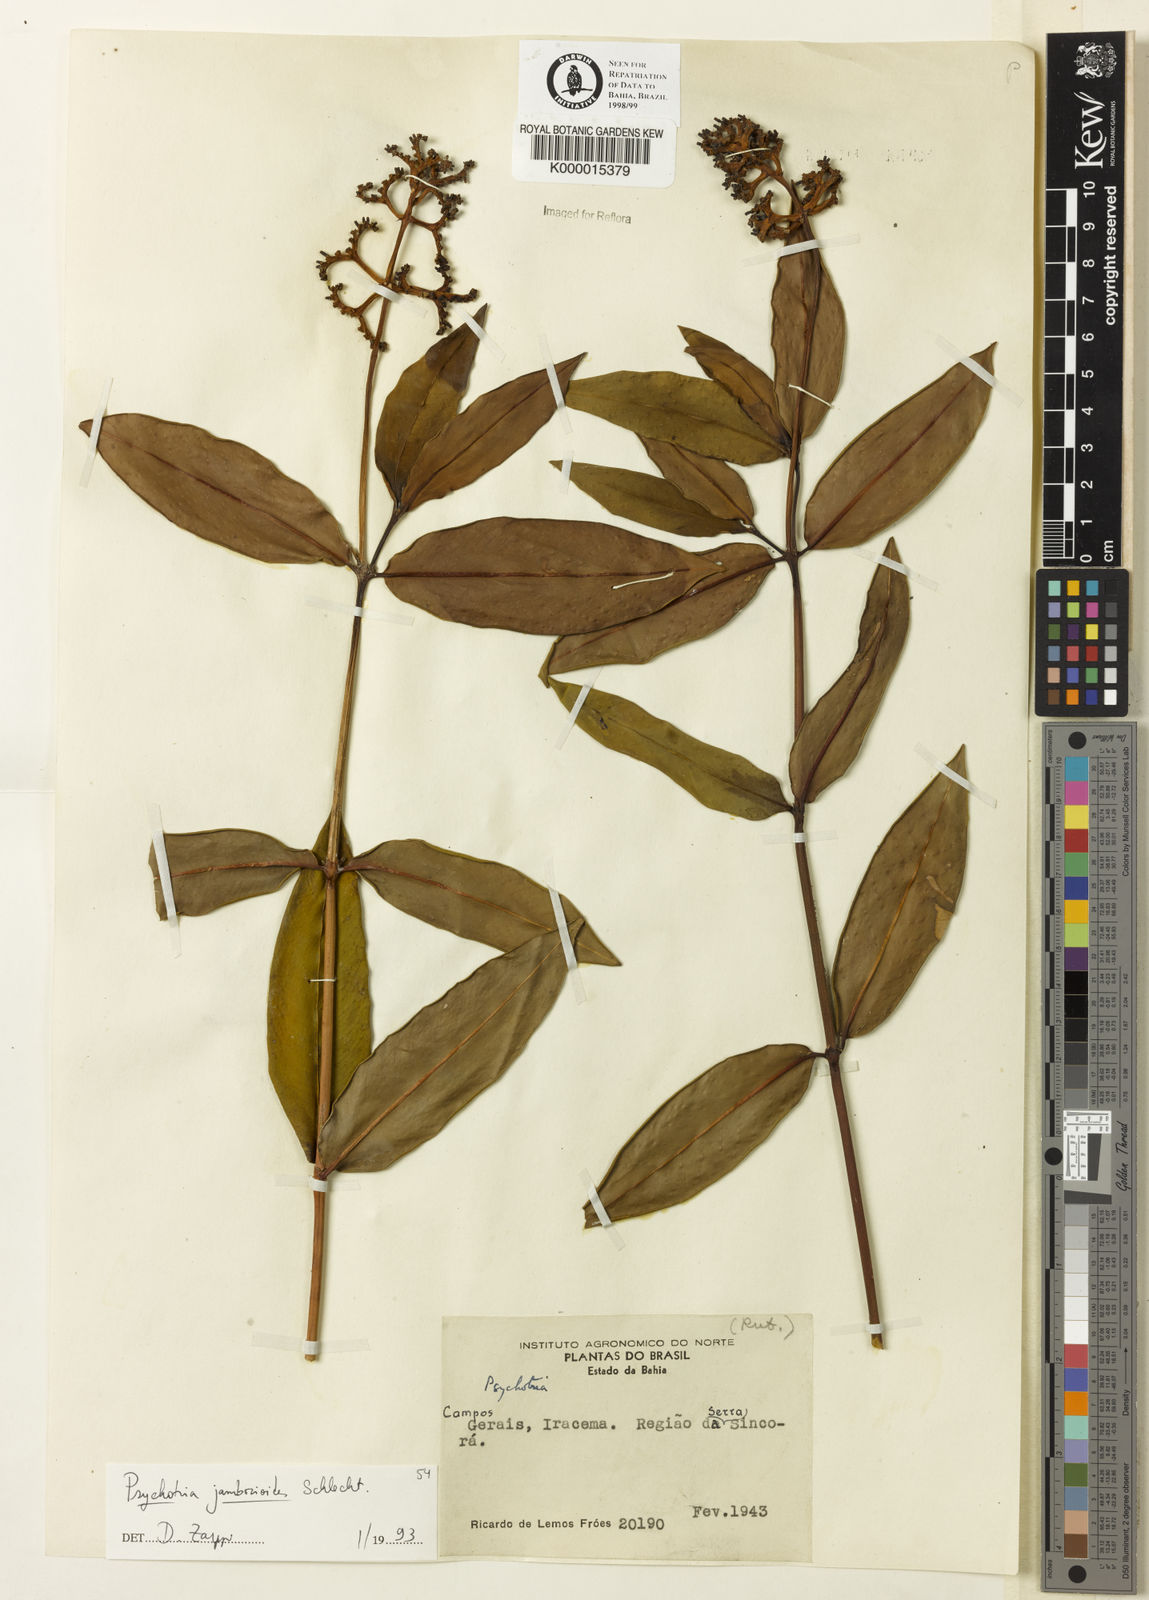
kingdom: Plantae
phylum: Tracheophyta
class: Magnoliopsida
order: Gentianales
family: Rubiaceae
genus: Palicourea
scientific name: Palicourea jambosioides
